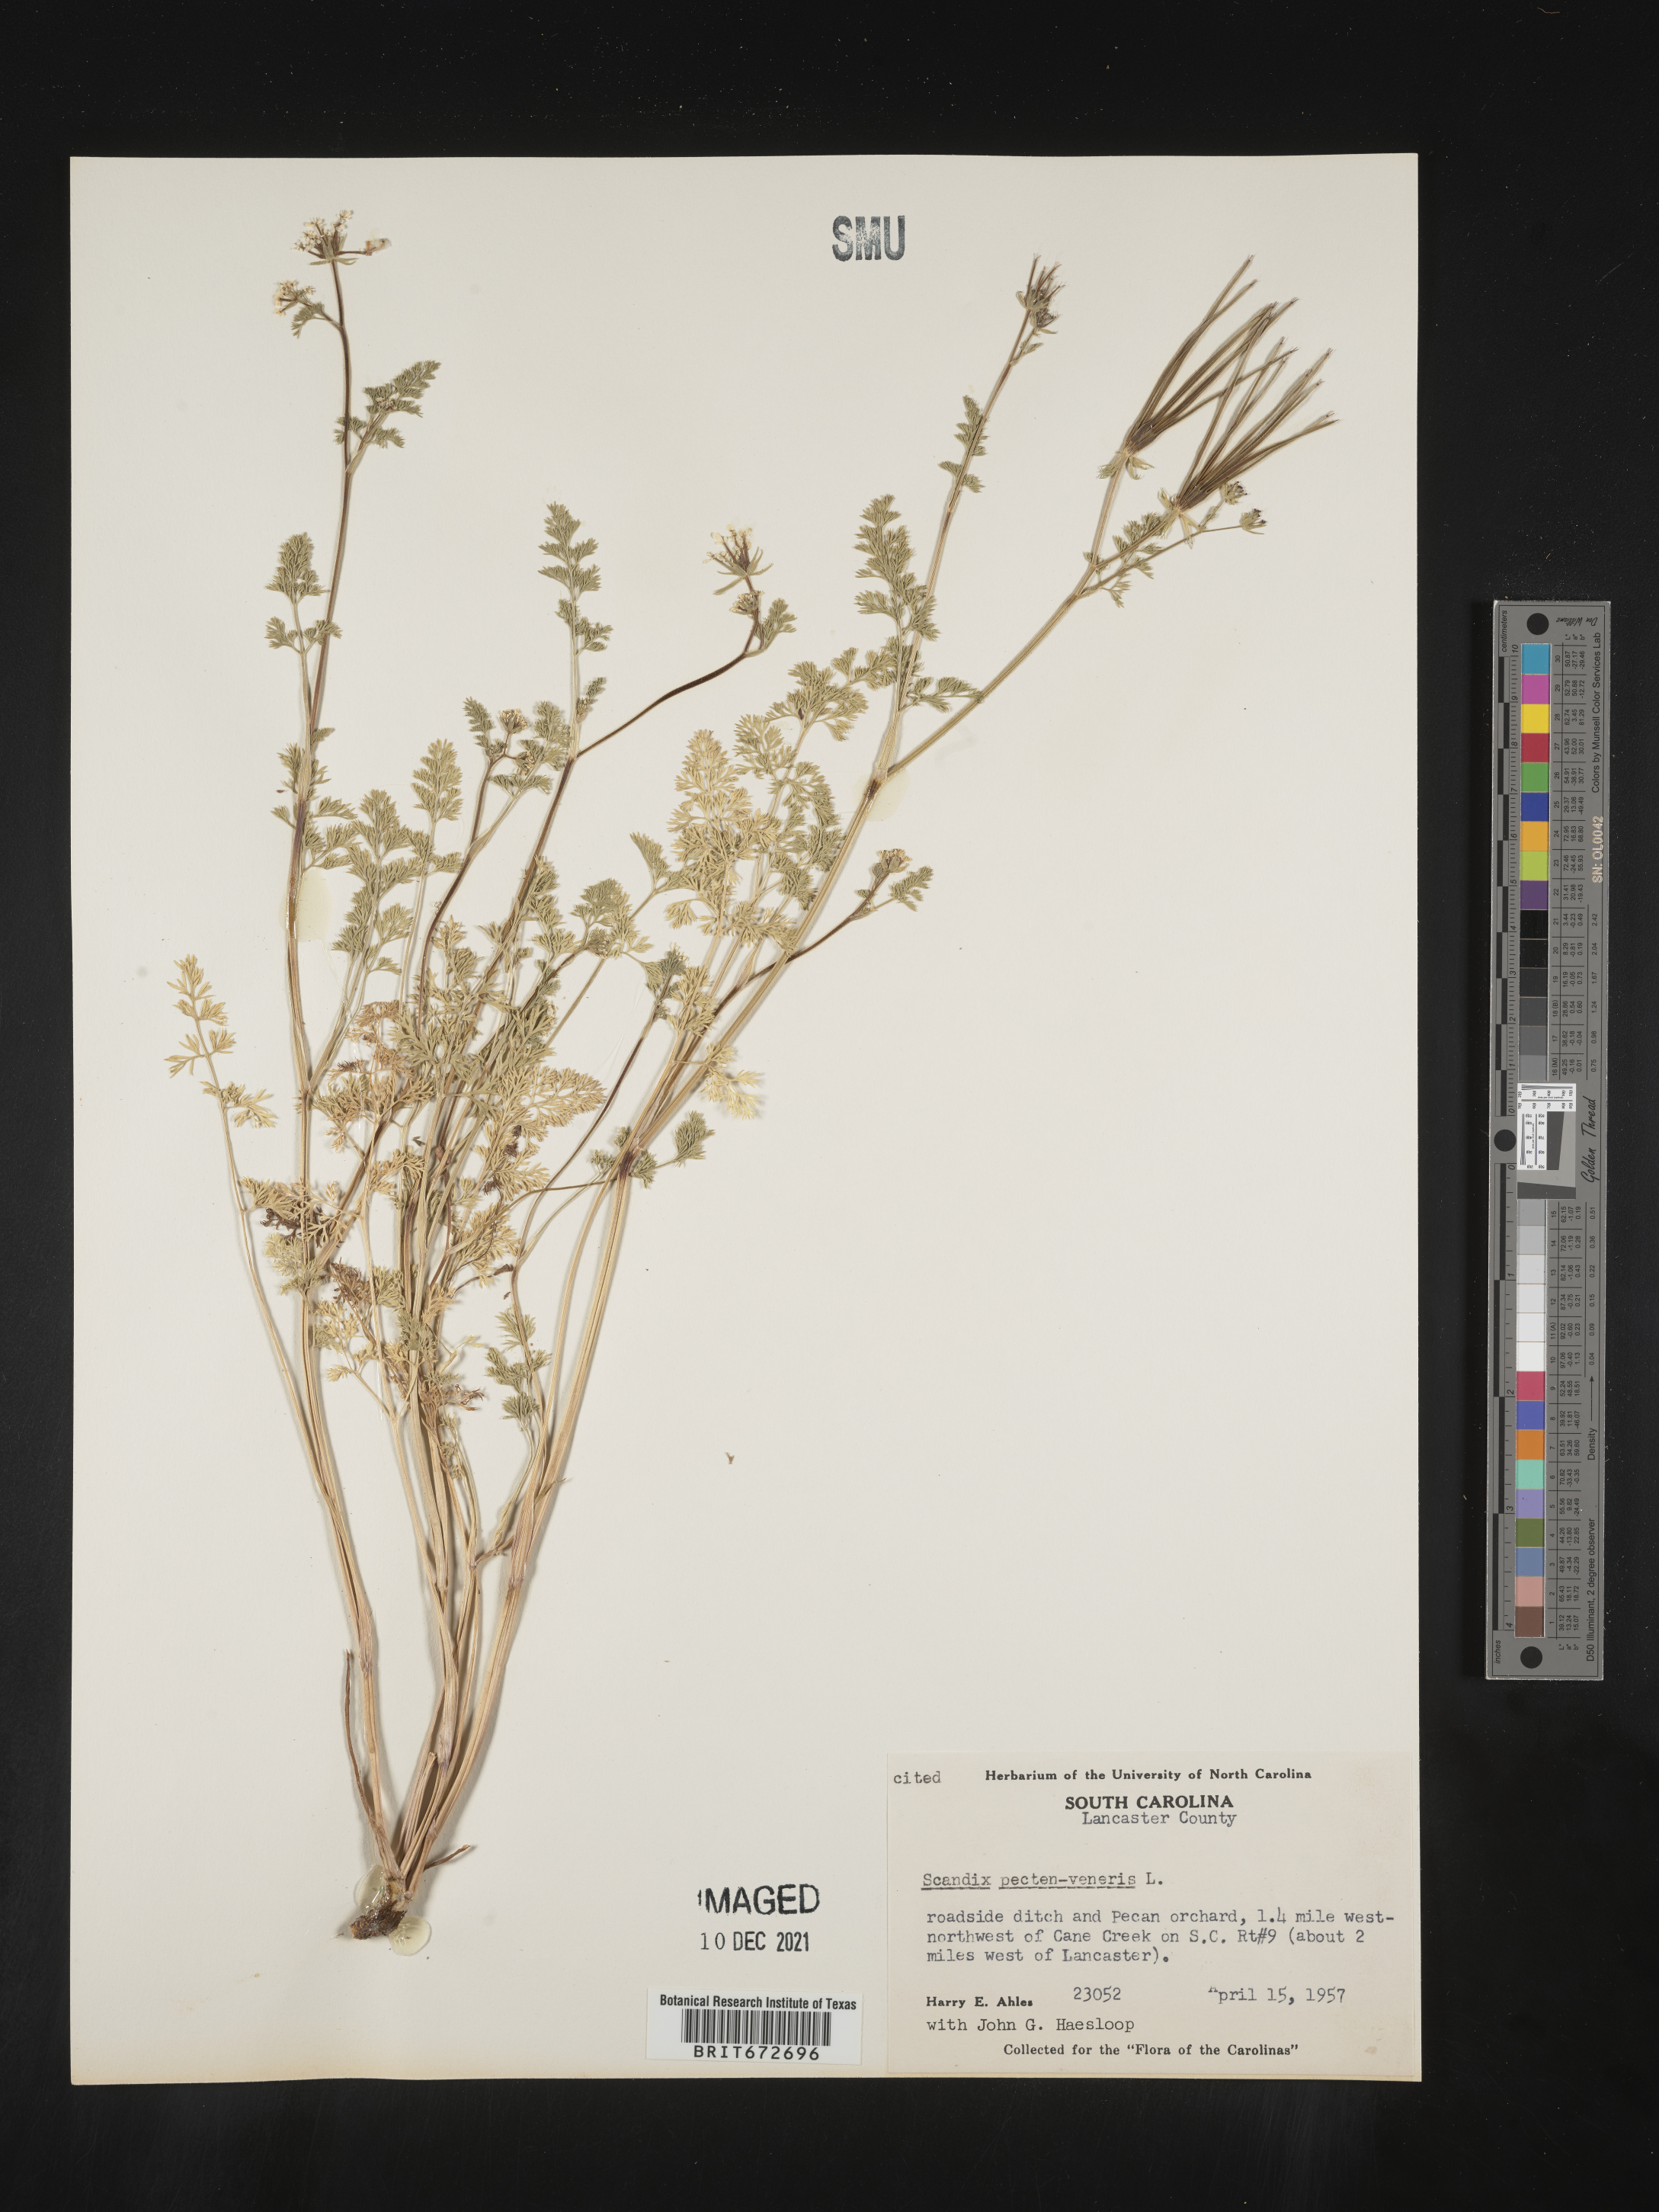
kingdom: Plantae
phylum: Tracheophyta
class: Magnoliopsida
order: Apiales
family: Apiaceae
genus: Scandix
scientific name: Scandix
